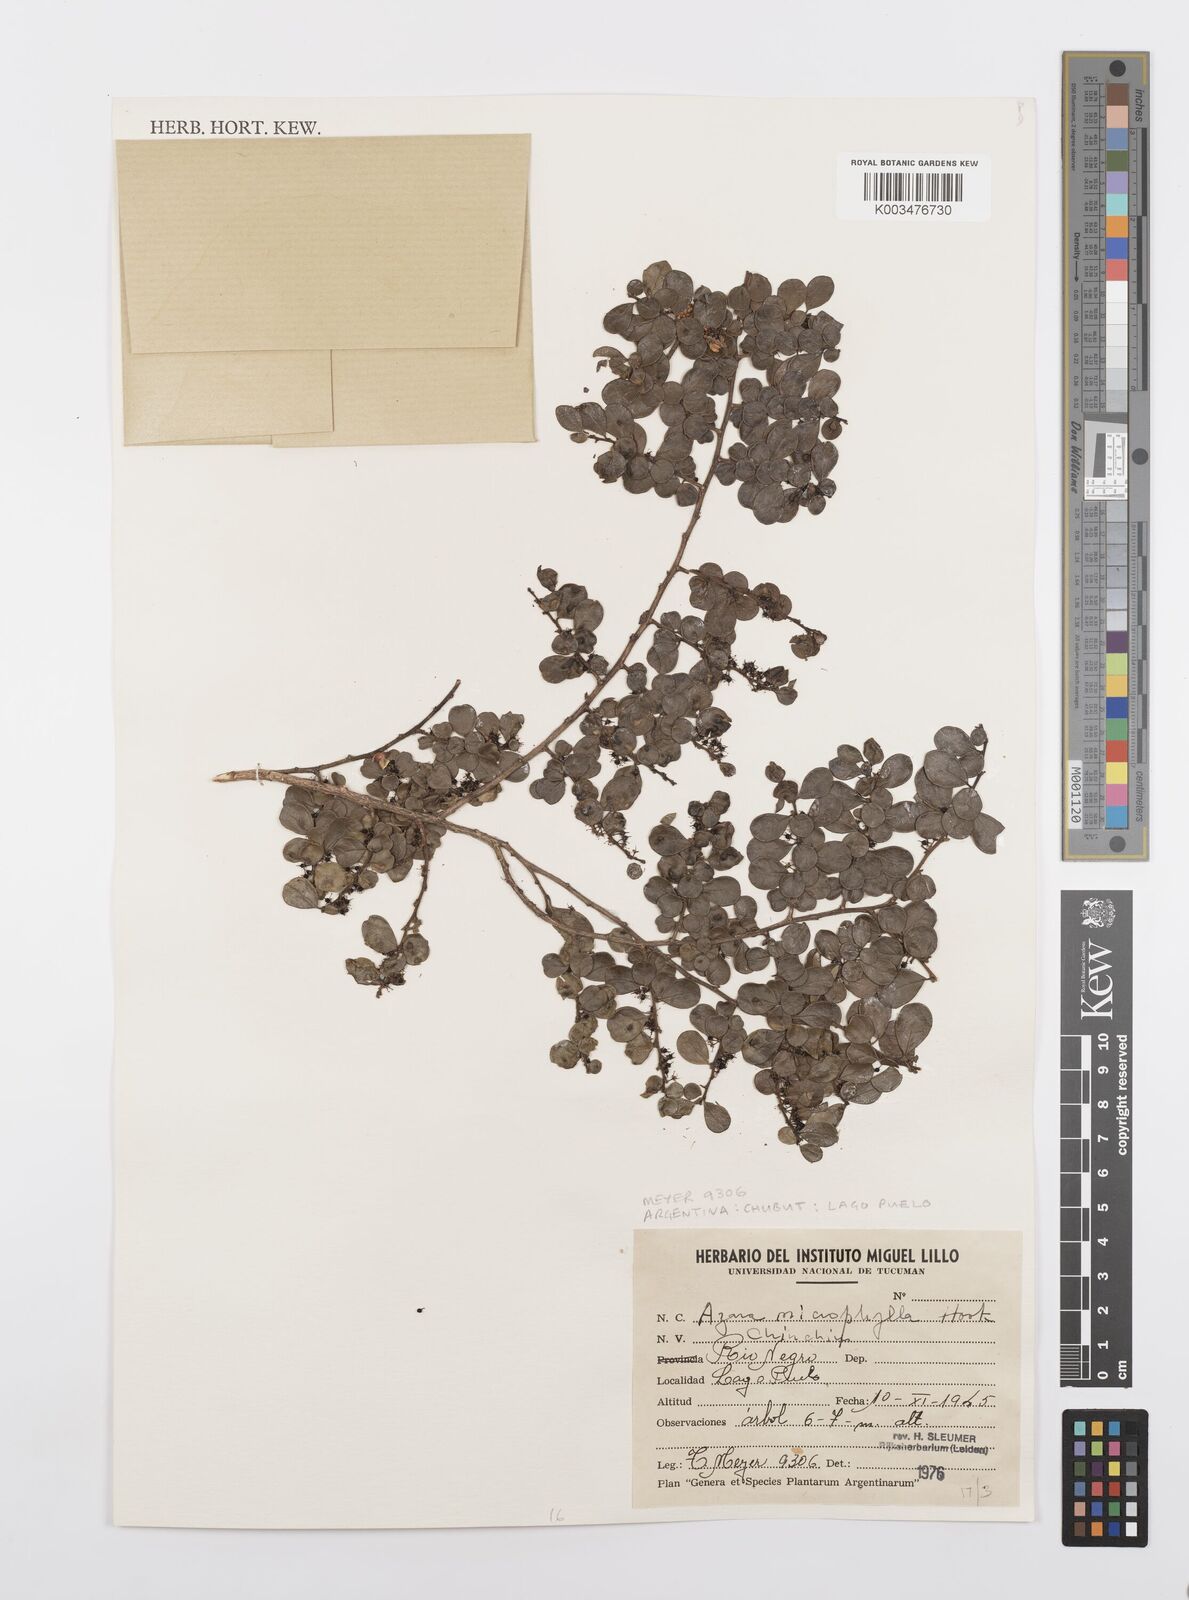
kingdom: Plantae
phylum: Tracheophyta
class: Magnoliopsida
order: Malpighiales
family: Salicaceae
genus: Azara
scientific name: Azara microphylla
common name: Box-leaf azara
